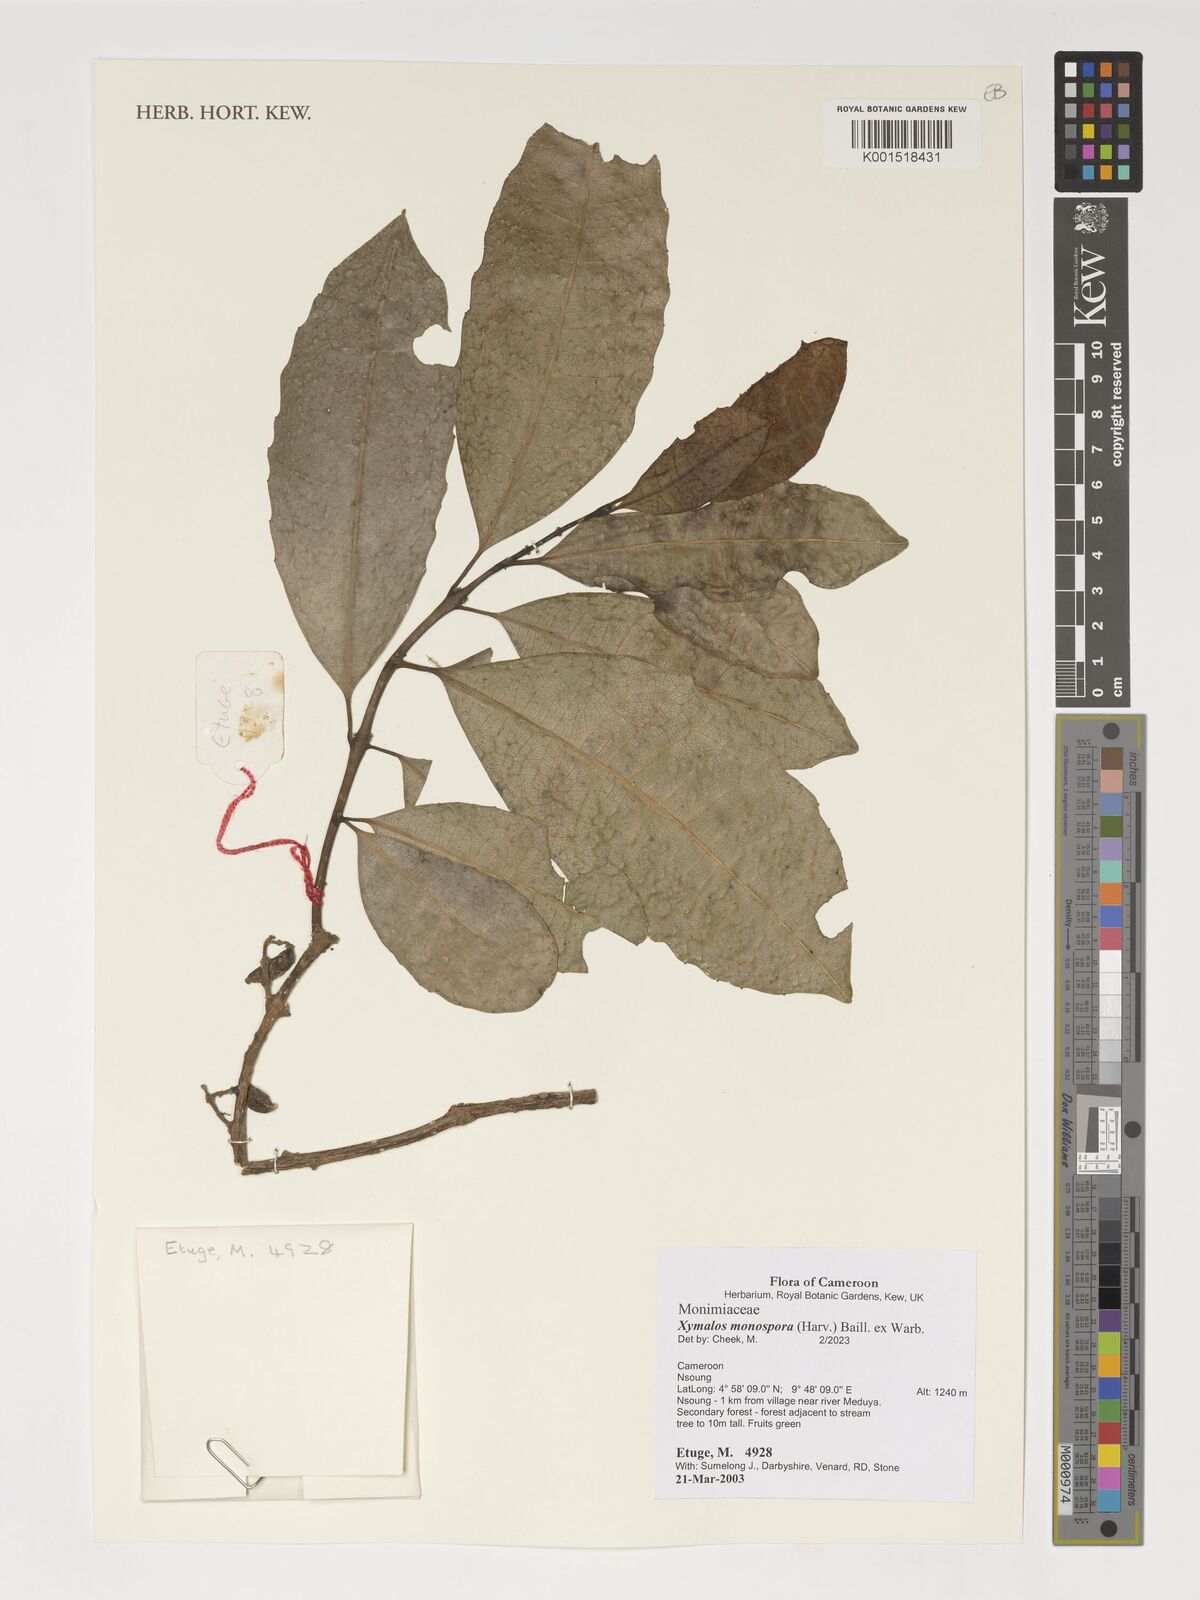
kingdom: Plantae
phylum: Tracheophyta
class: Magnoliopsida
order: Laurales
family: Monimiaceae
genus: Xymalos
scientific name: Xymalos monospora
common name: Lemonwood
